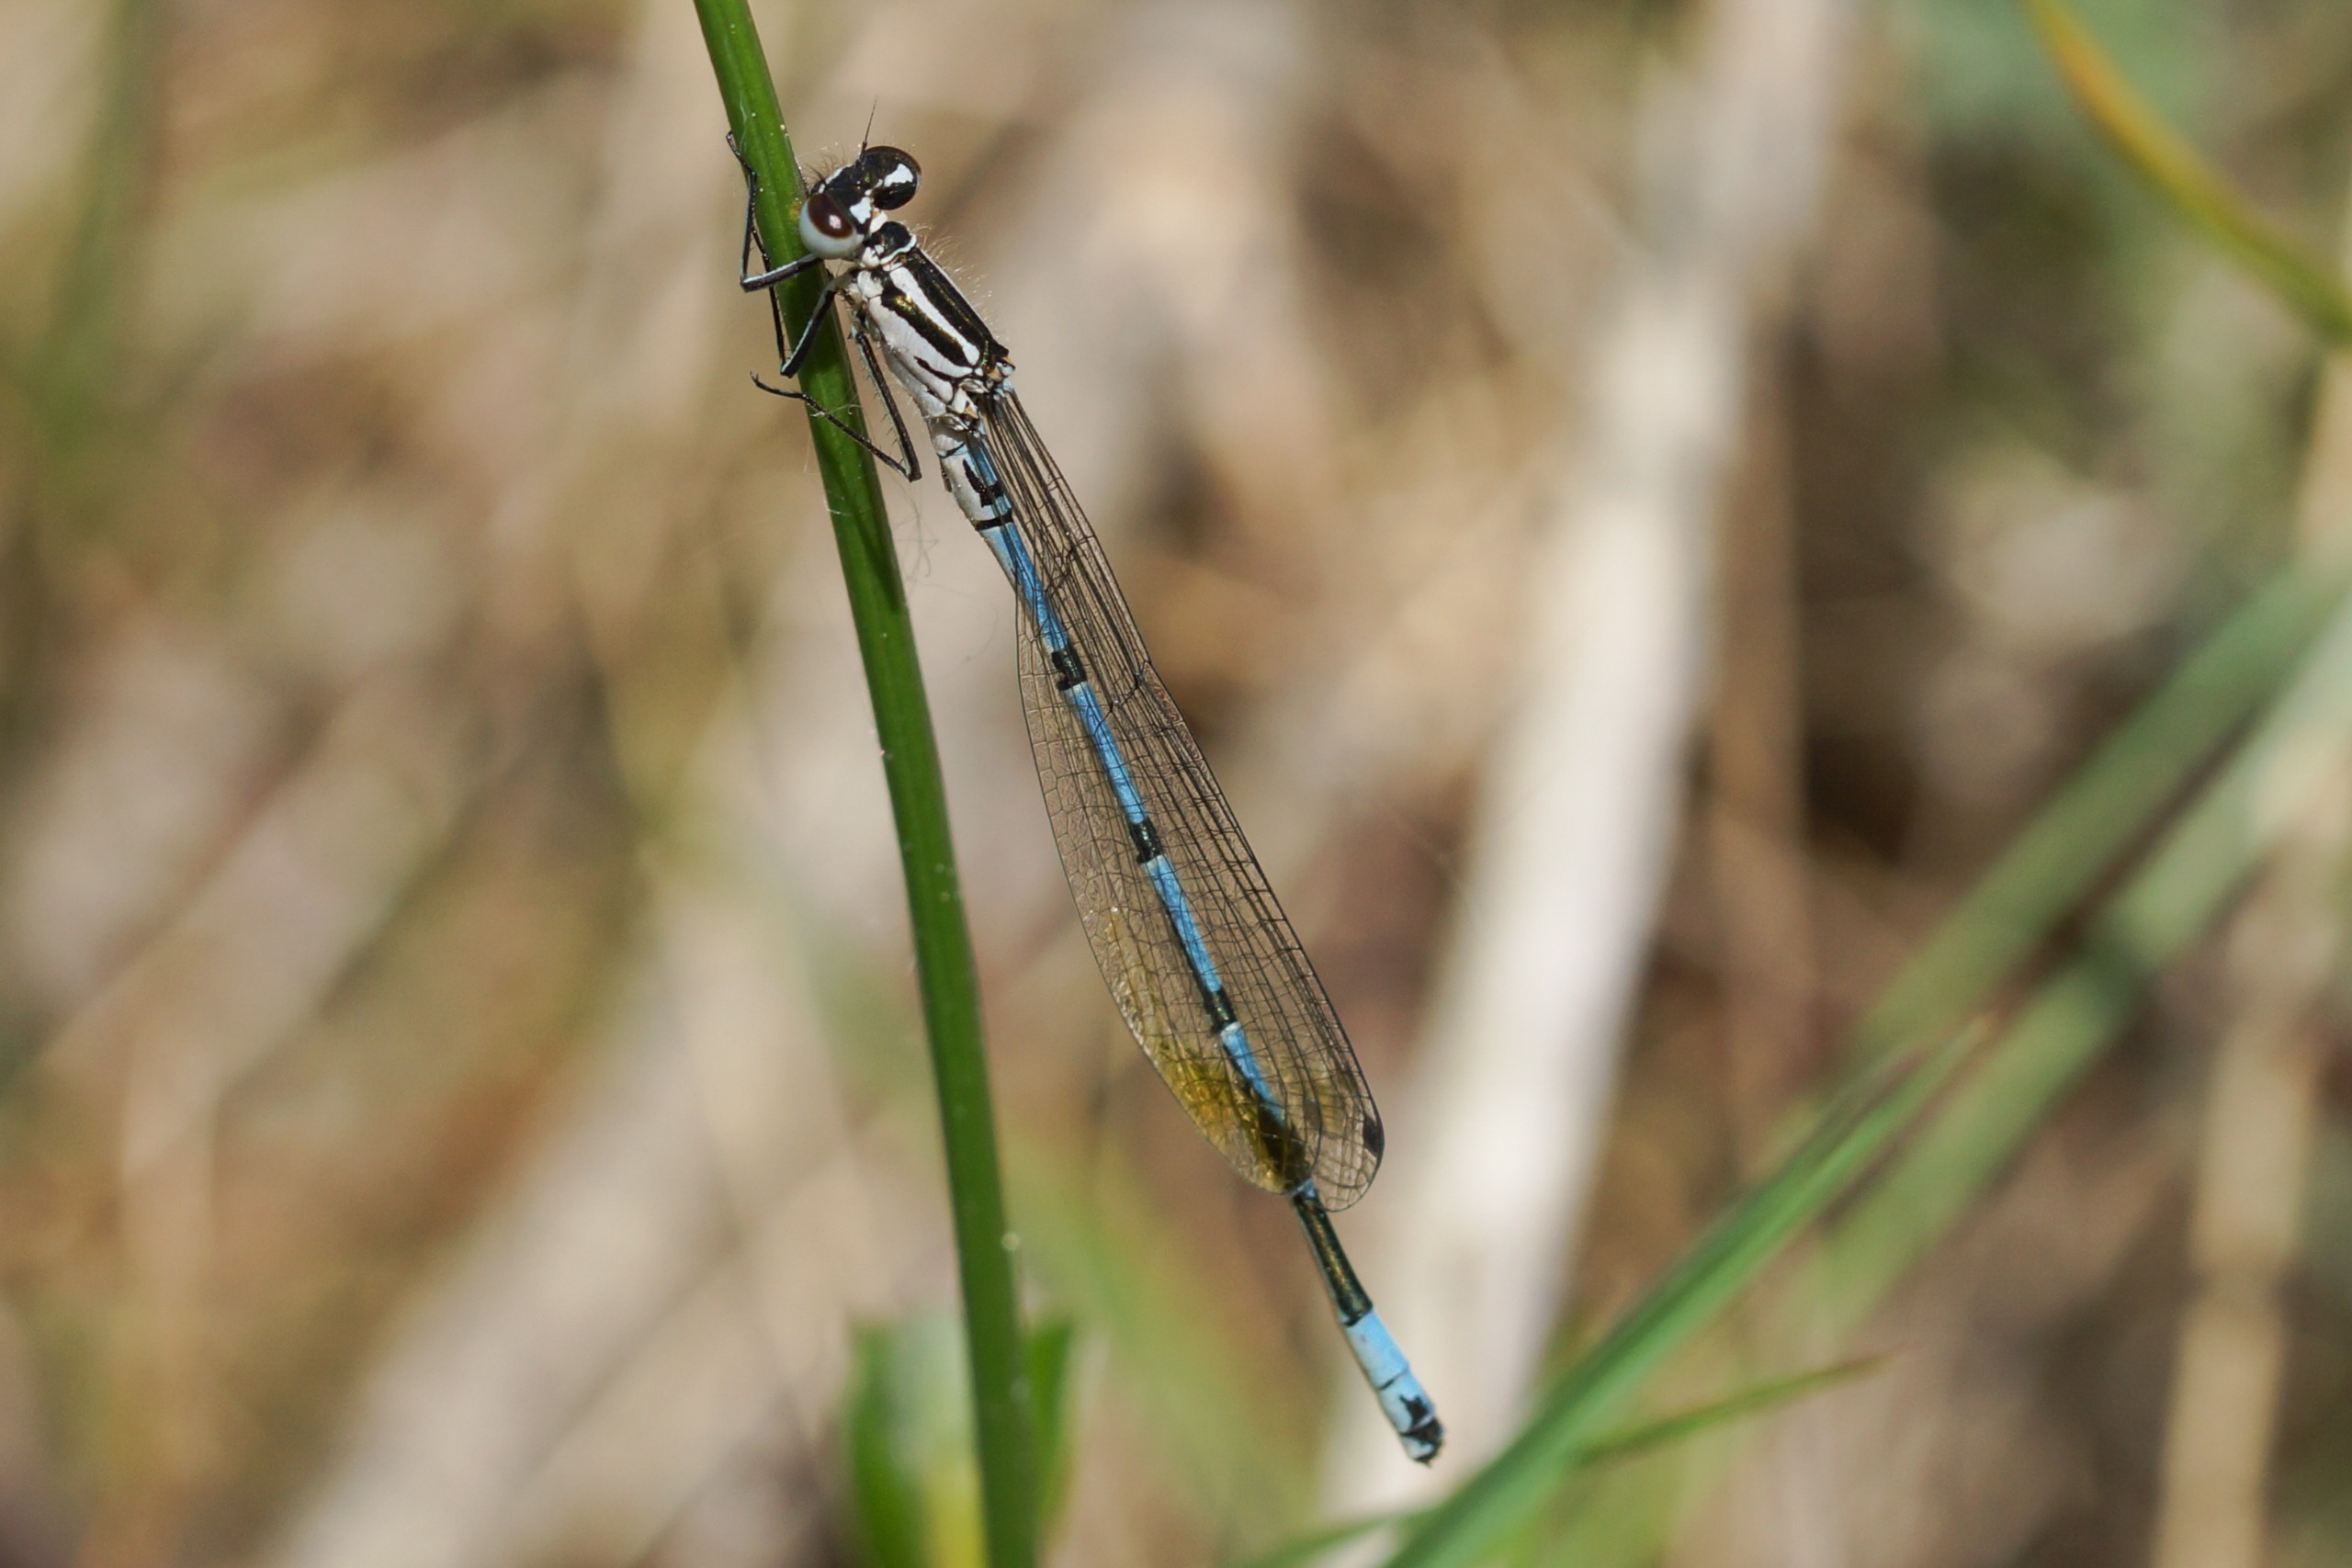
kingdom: Animalia
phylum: Arthropoda
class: Insecta
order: Odonata
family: Coenagrionidae
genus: Coenagrion
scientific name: Coenagrion puella
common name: Hestesko-vandnymfe
